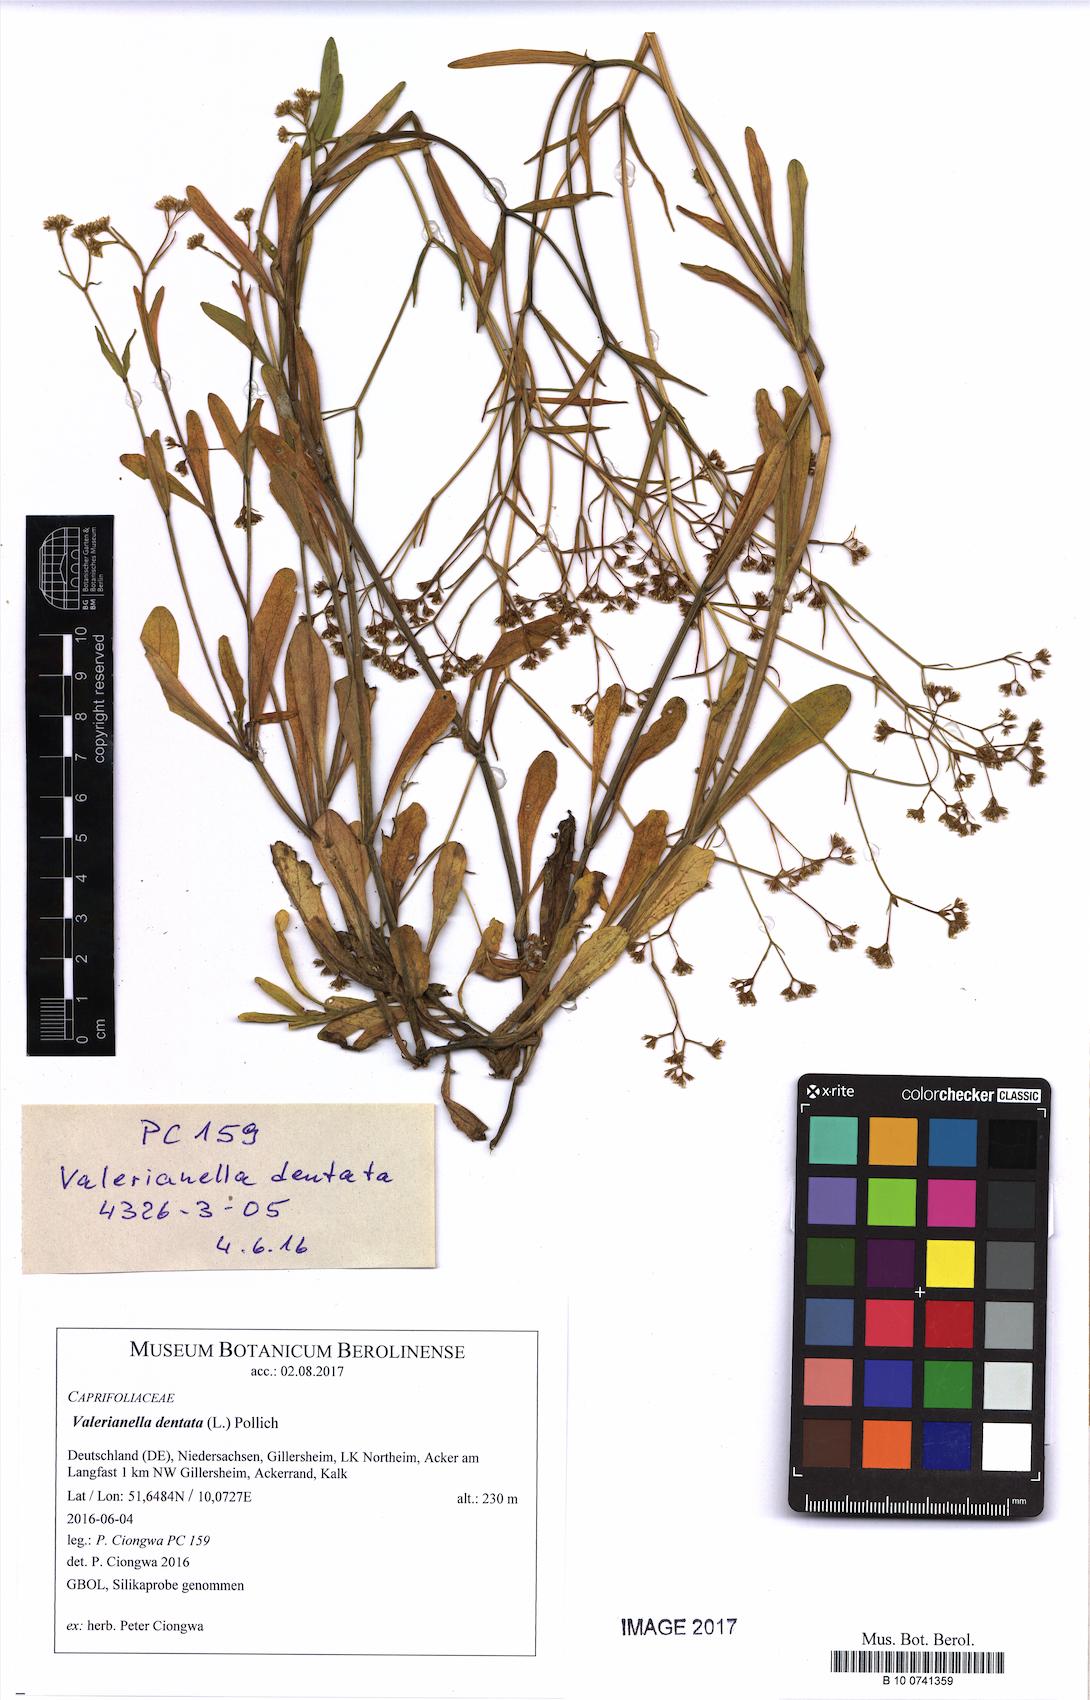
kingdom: Plantae
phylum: Tracheophyta
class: Magnoliopsida
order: Dipsacales
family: Caprifoliaceae
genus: Valerianella
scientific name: Valerianella dentata
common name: Narrow-fruited cornsalad
